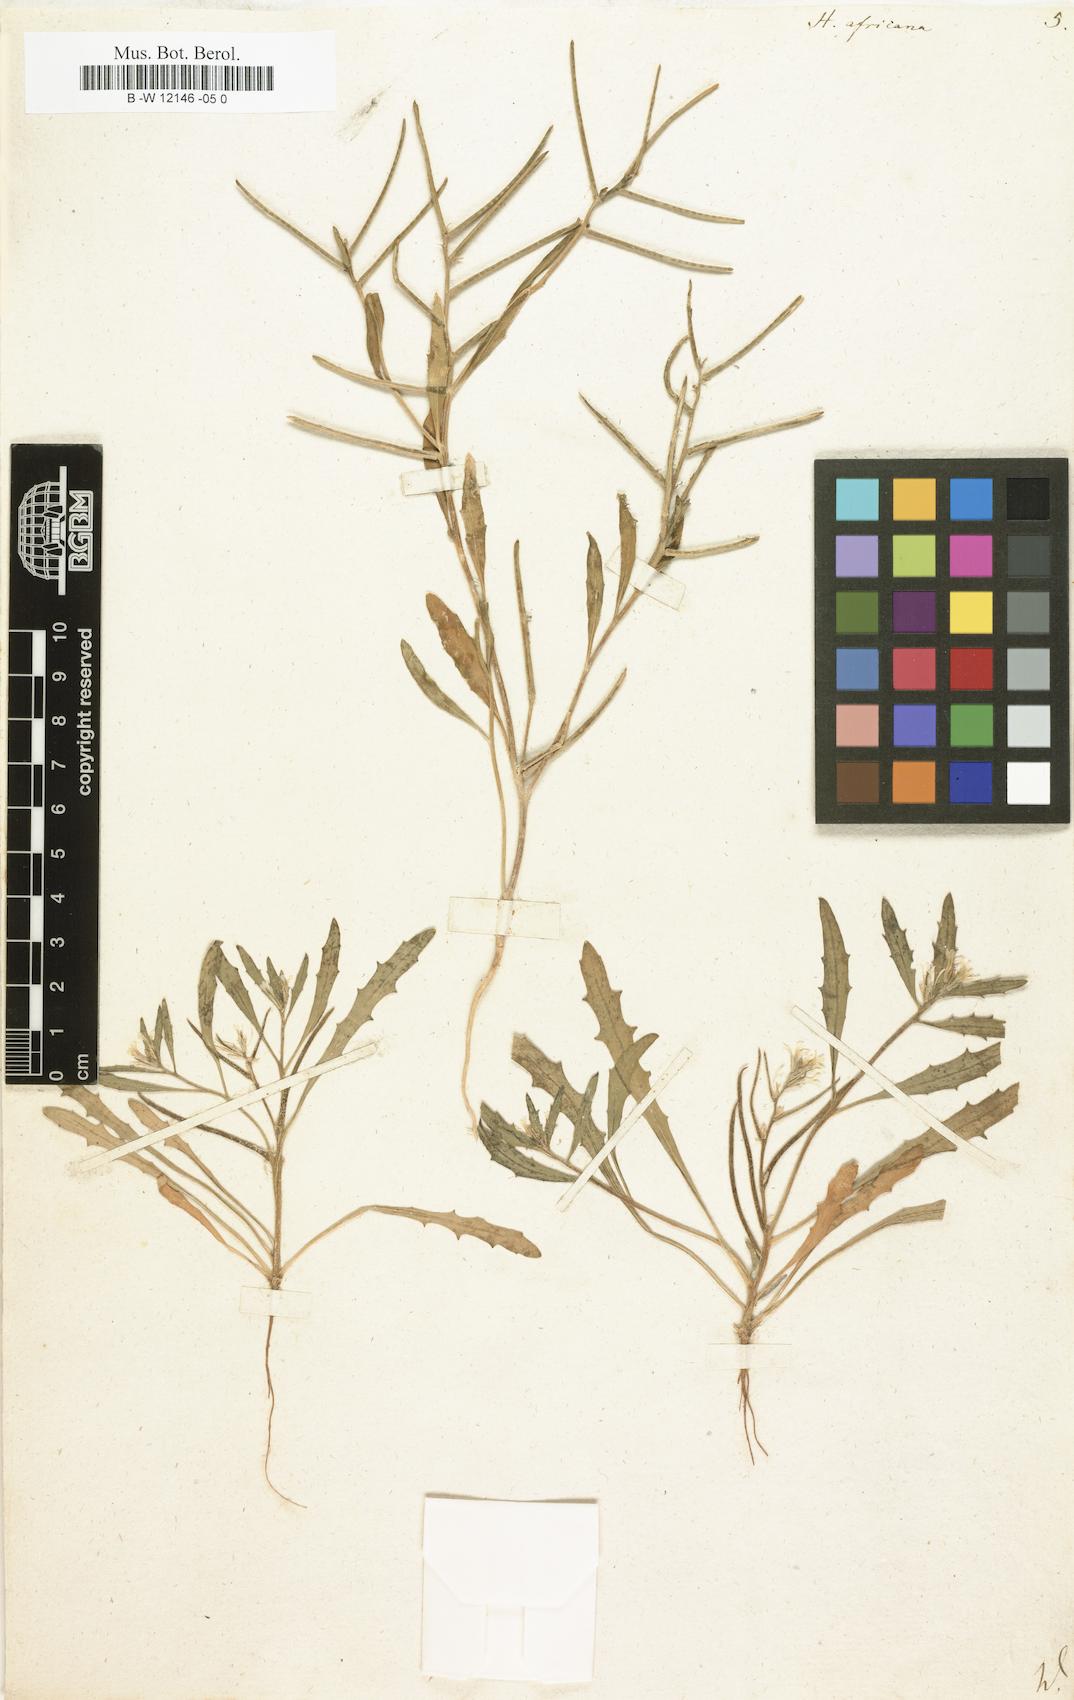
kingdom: Plantae
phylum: Tracheophyta
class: Magnoliopsida
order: Brassicales
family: Brassicaceae
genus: Strigosella
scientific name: Strigosella africana
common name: African mustard
